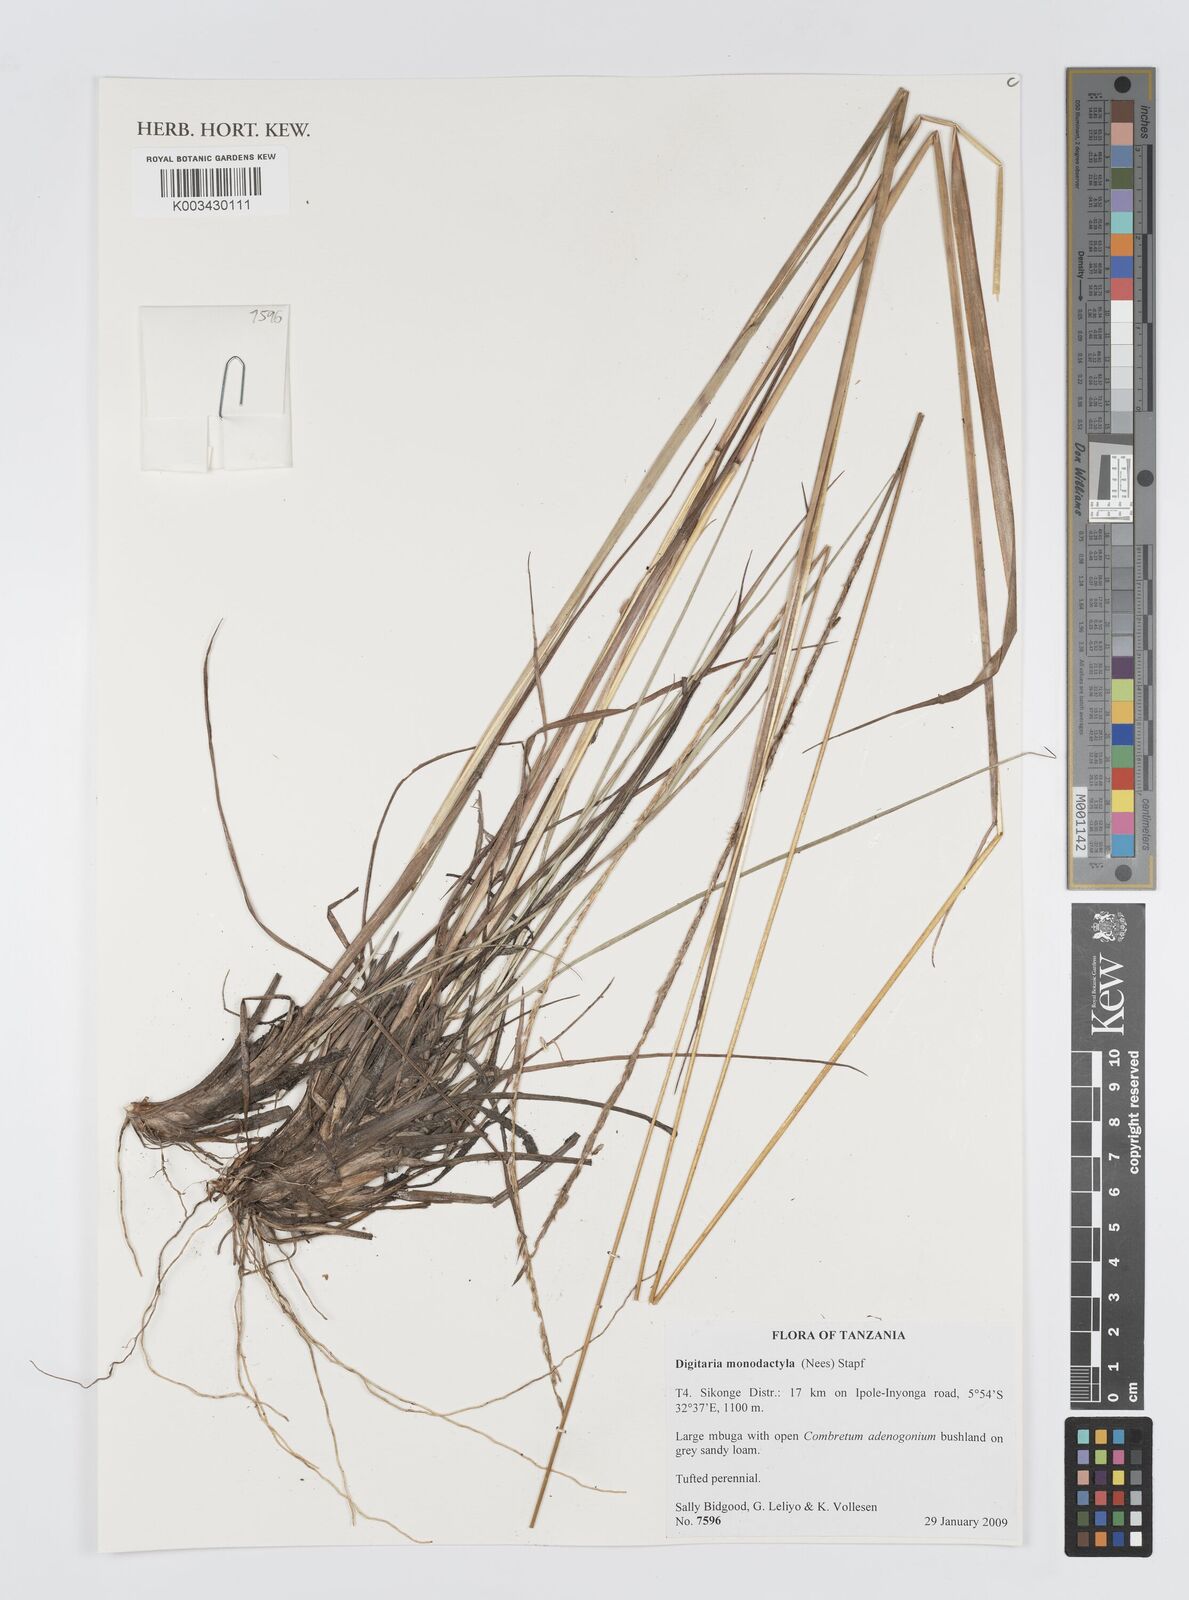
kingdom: Plantae
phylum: Tracheophyta
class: Liliopsida
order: Poales
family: Poaceae
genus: Digitaria
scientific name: Digitaria monodactyla
